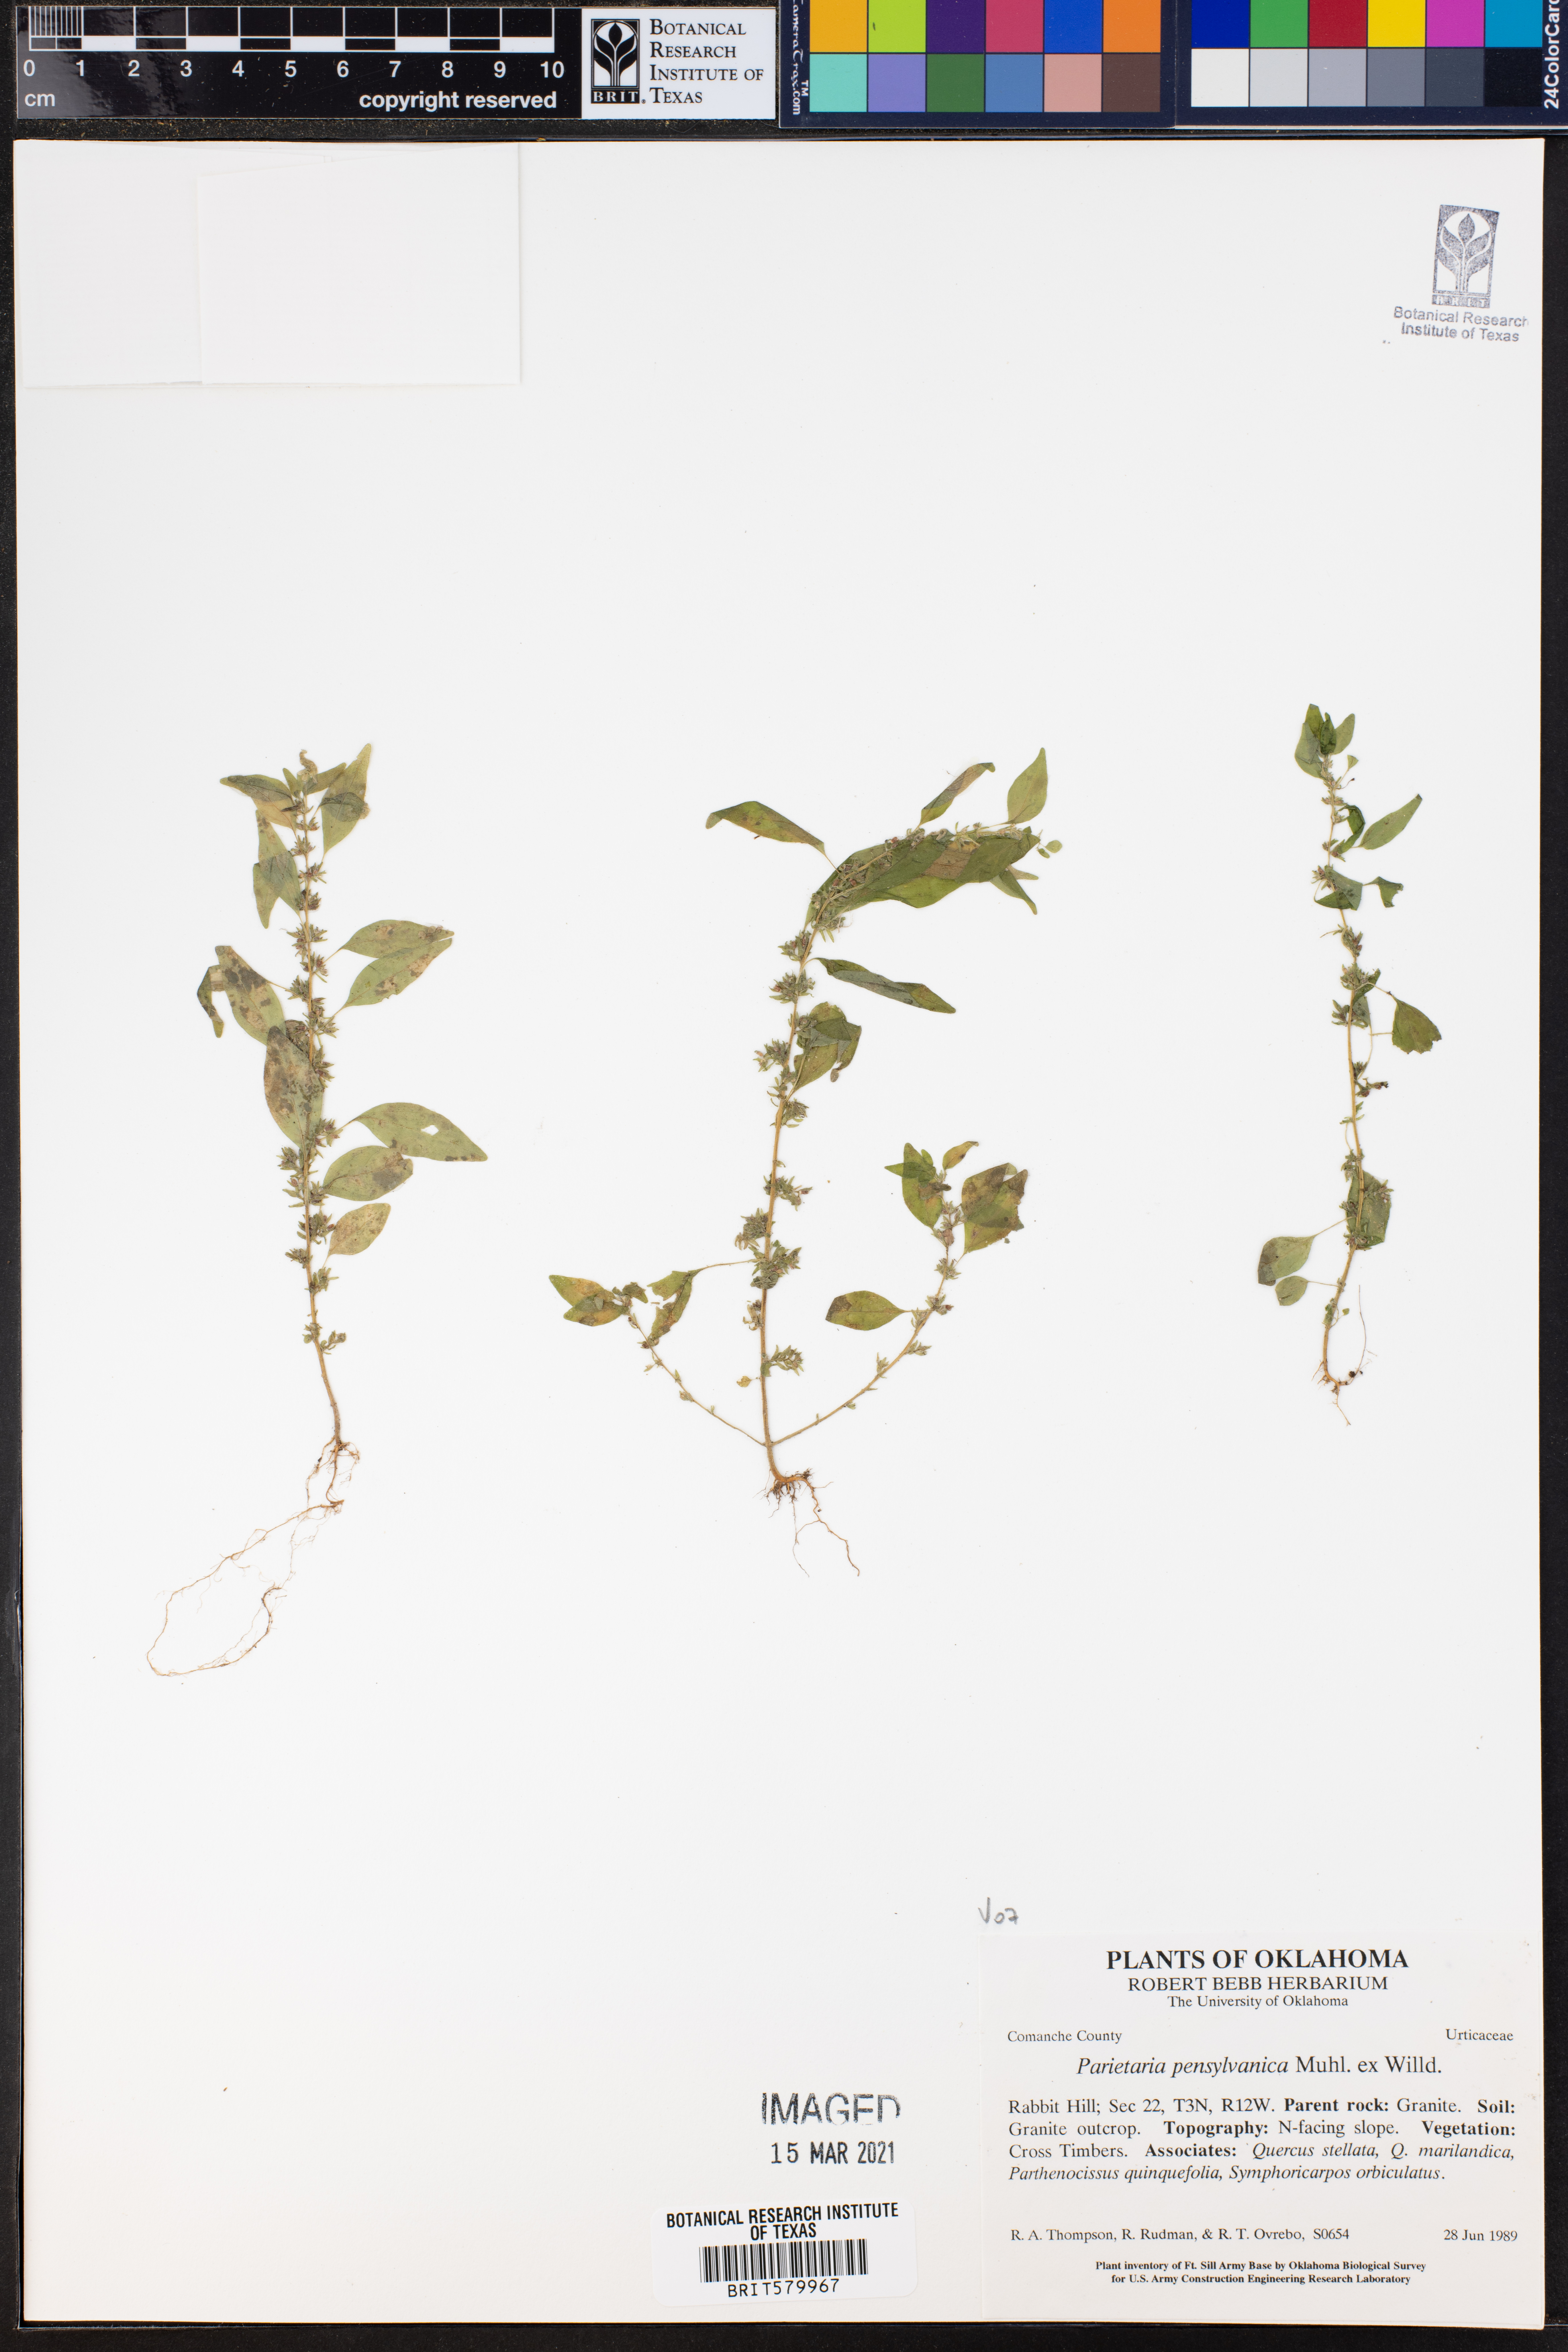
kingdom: Plantae
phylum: Tracheophyta
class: Magnoliopsida
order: Rosales
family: Urticaceae
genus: Parietaria
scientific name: Parietaria pensylvanica
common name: Pennsylvania pellitory
